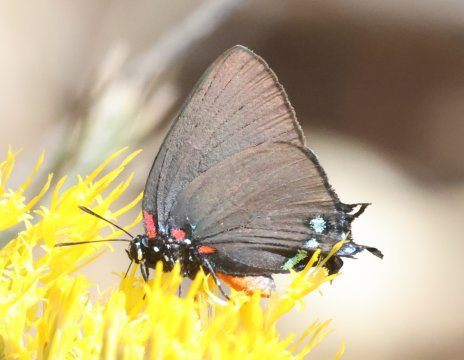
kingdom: Animalia
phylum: Arthropoda
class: Insecta
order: Lepidoptera
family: Lycaenidae
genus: Atlides
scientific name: Atlides halesus
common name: Great Purple Hairstreak
